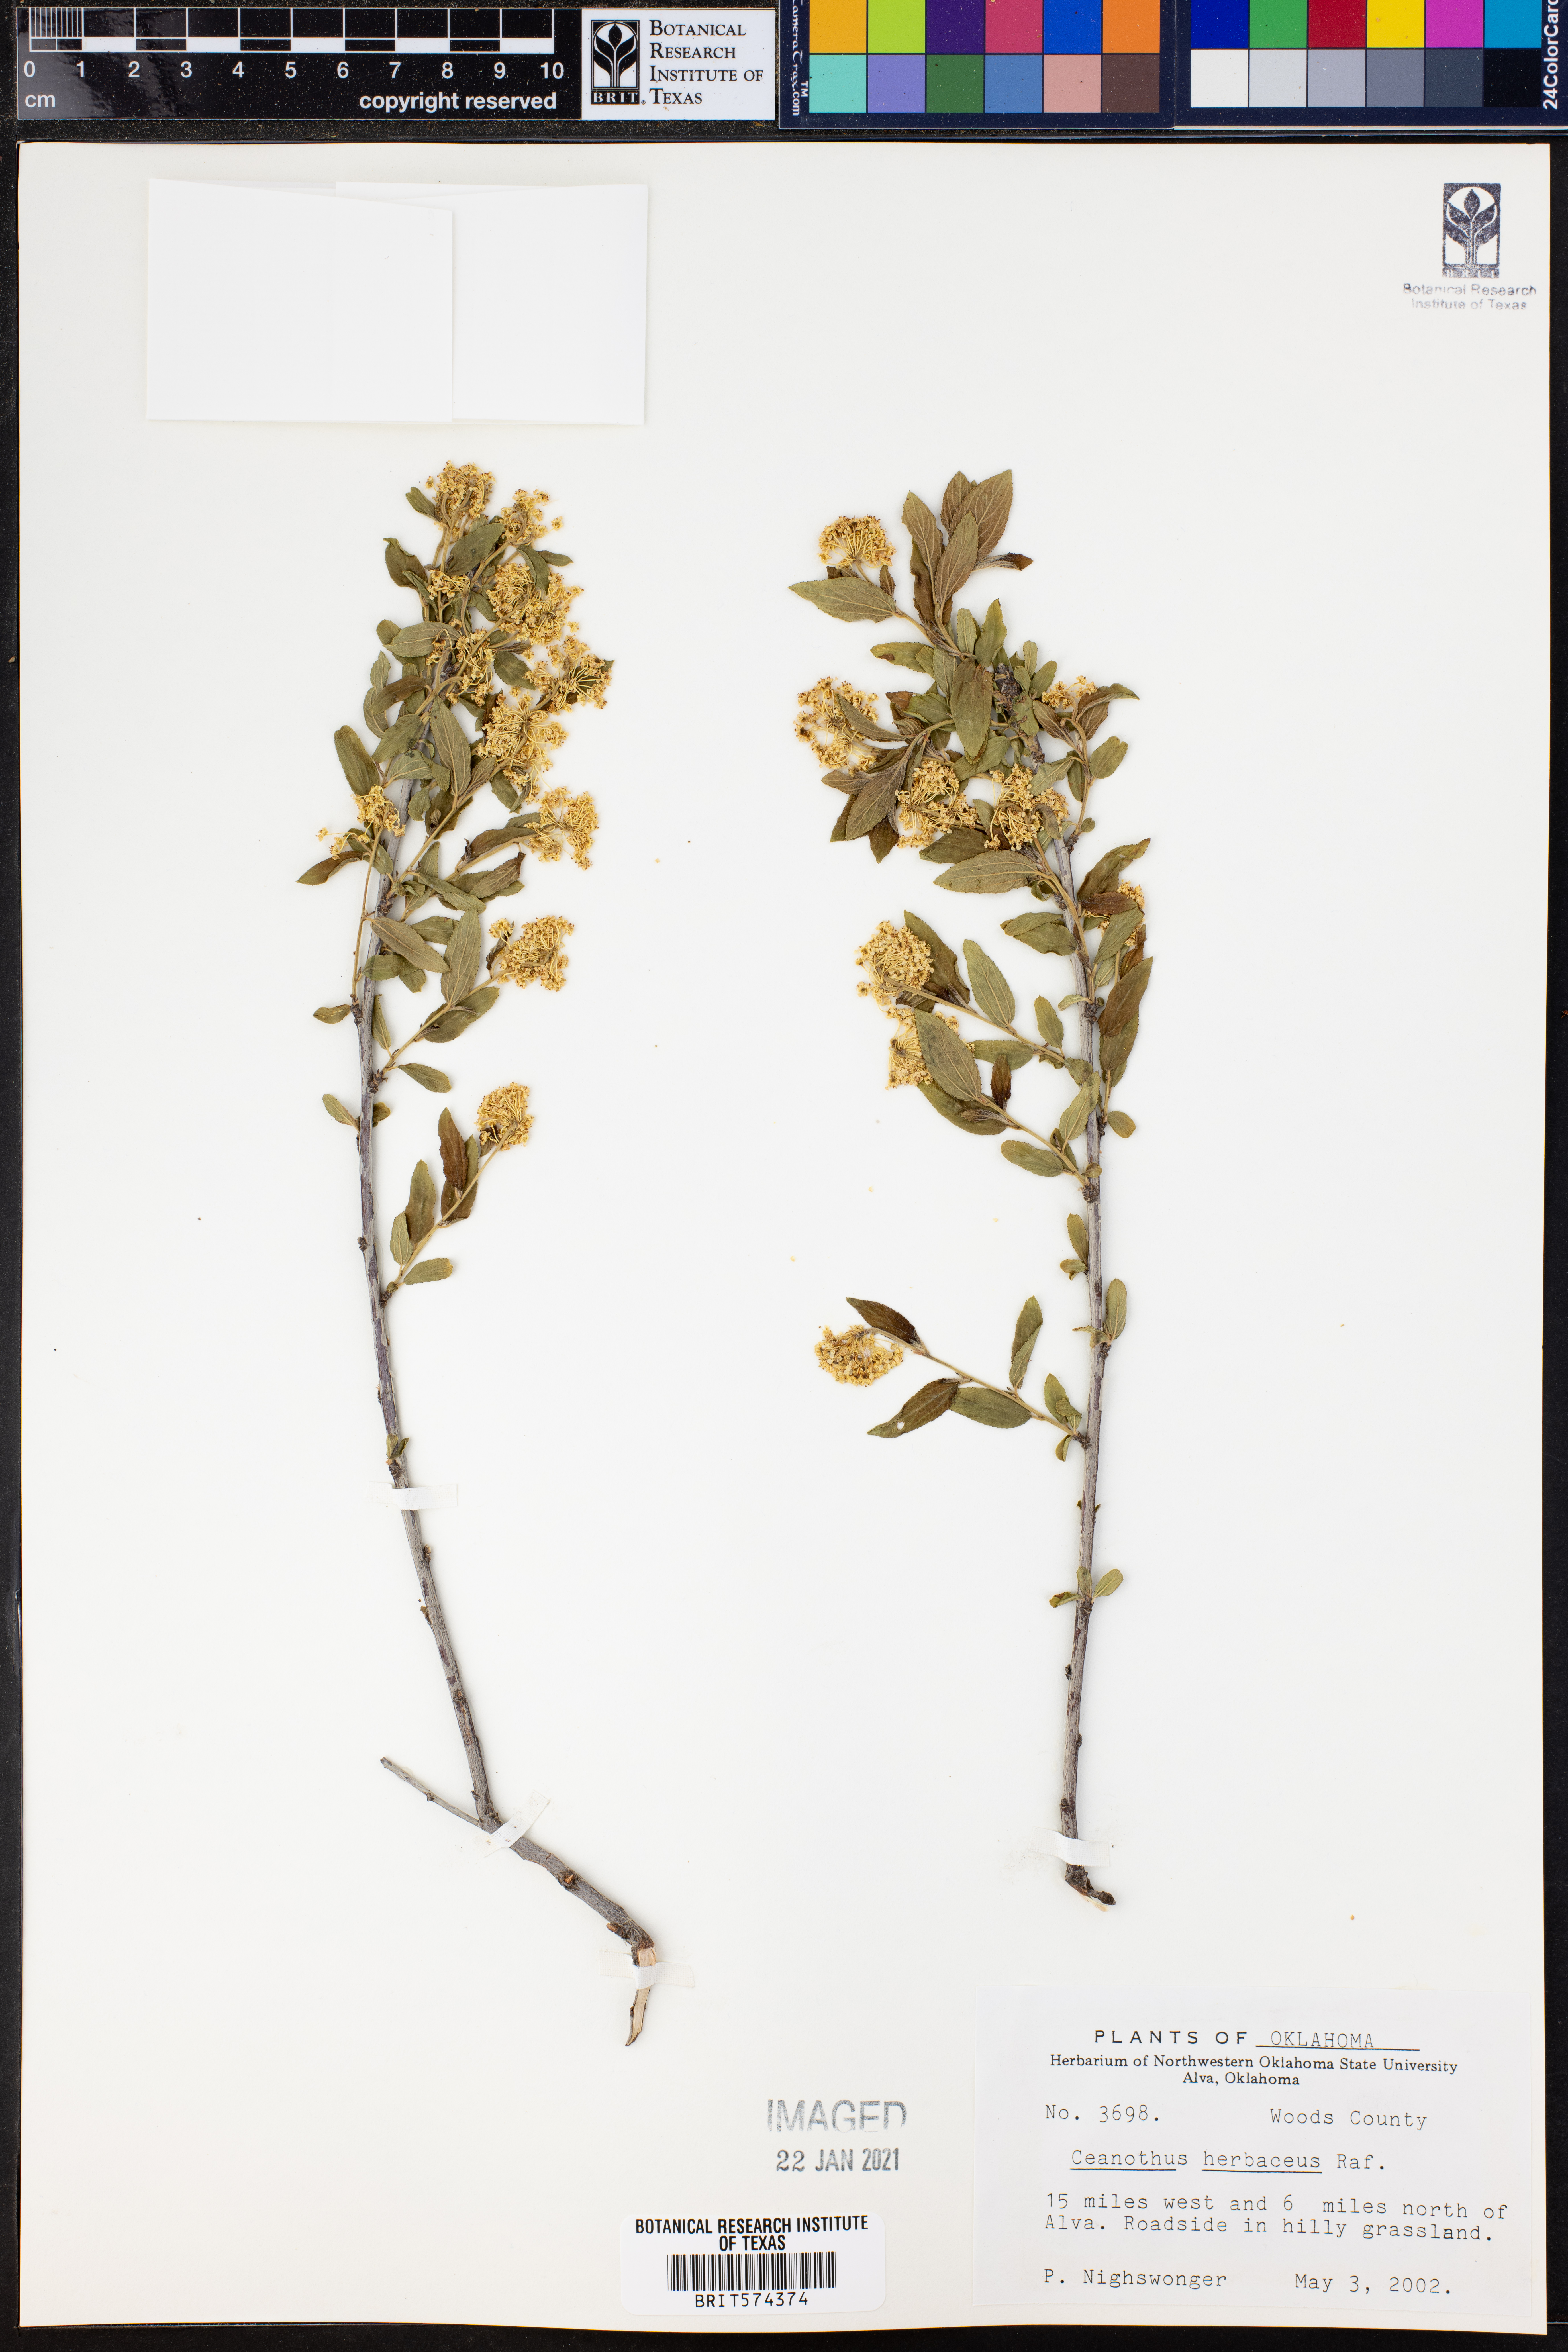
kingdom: Plantae
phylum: Tracheophyta
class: Magnoliopsida
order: Rosales
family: Rhamnaceae
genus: Ceanothus
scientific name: Ceanothus herbaceus
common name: Inland ceanothus
